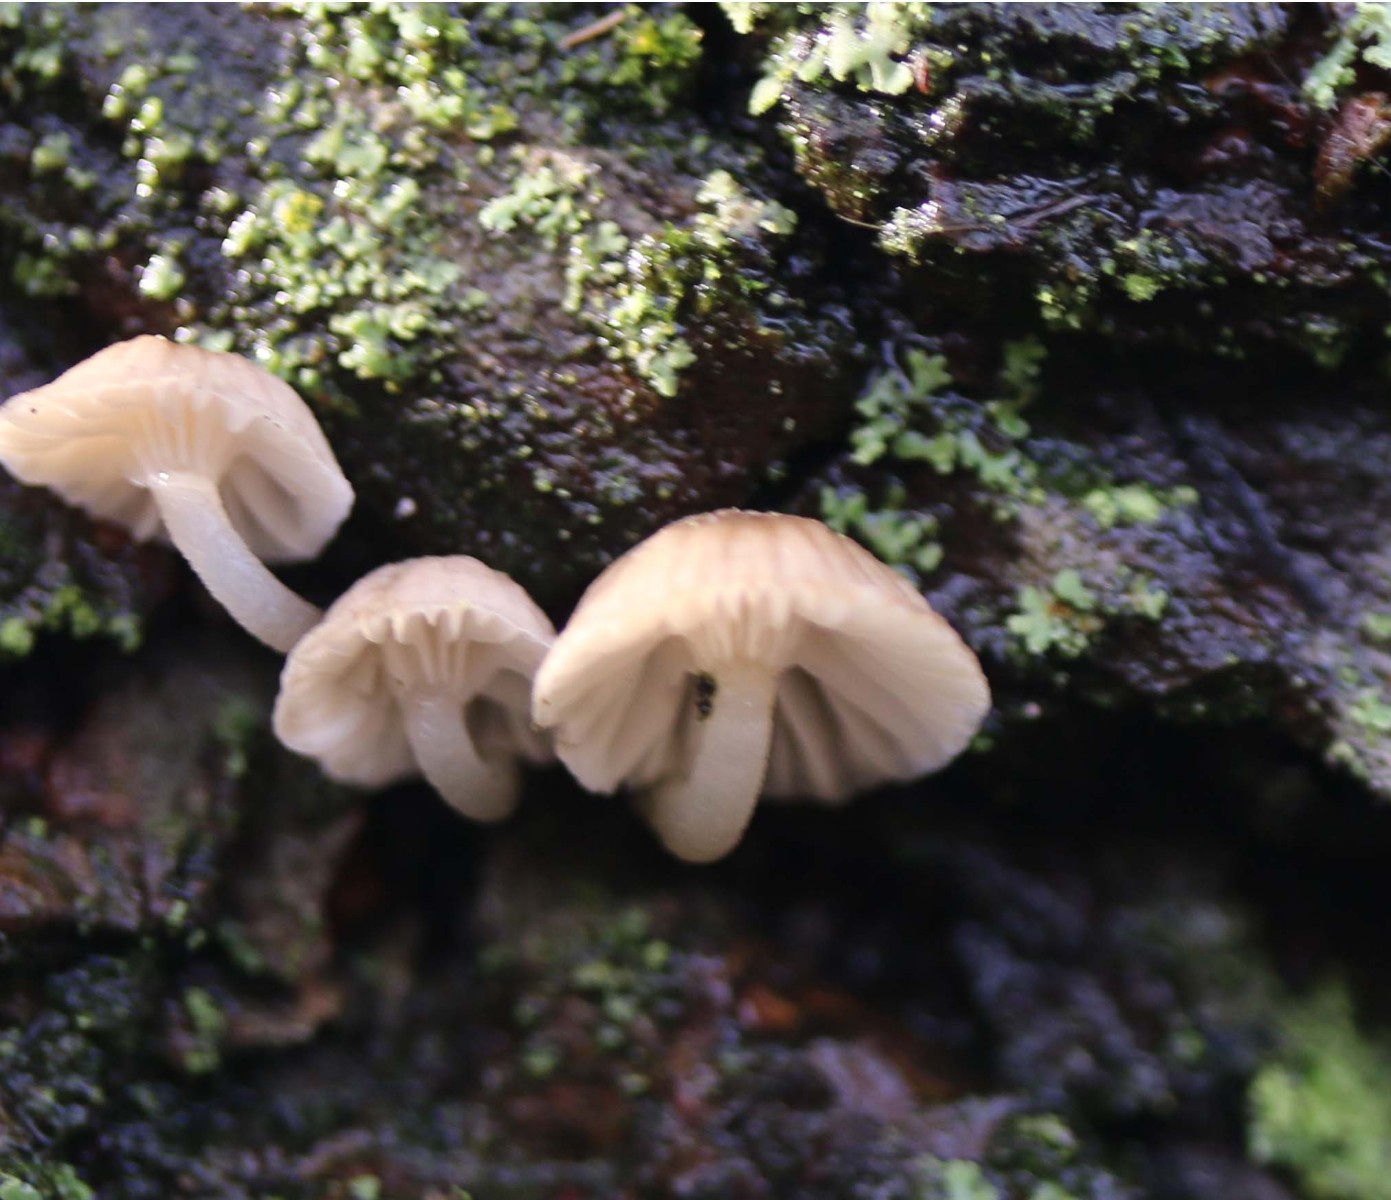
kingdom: Fungi
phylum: Basidiomycota
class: Agaricomycetes
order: Agaricales
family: Porotheleaceae
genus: Phloeomana
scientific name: Phloeomana speirea
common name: kvist-huesvamp
